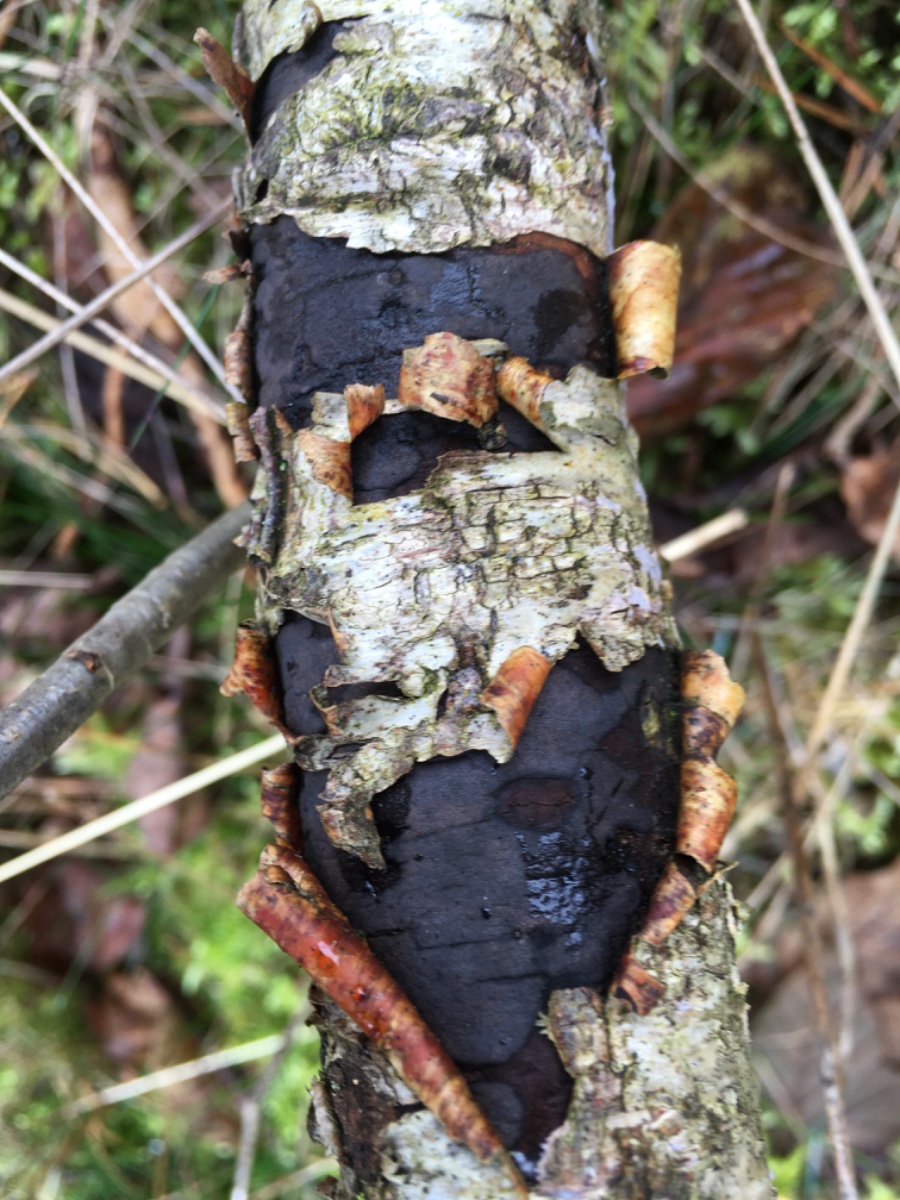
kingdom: Fungi
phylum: Ascomycota
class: Sordariomycetes
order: Xylariales
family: Diatrypaceae
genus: Diatrype
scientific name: Diatrype
